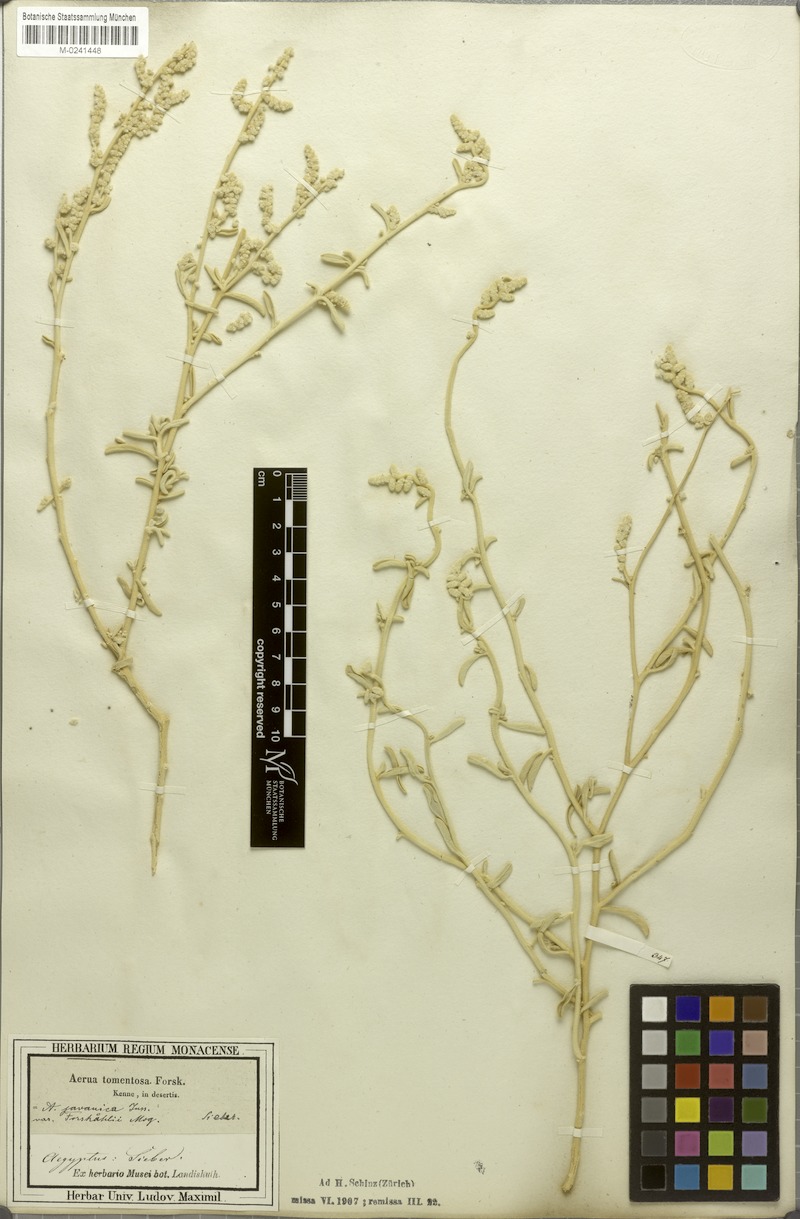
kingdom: Plantae
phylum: Tracheophyta
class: Magnoliopsida
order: Caryophyllales
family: Amaranthaceae
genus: Aerva
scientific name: Aerva javanica
